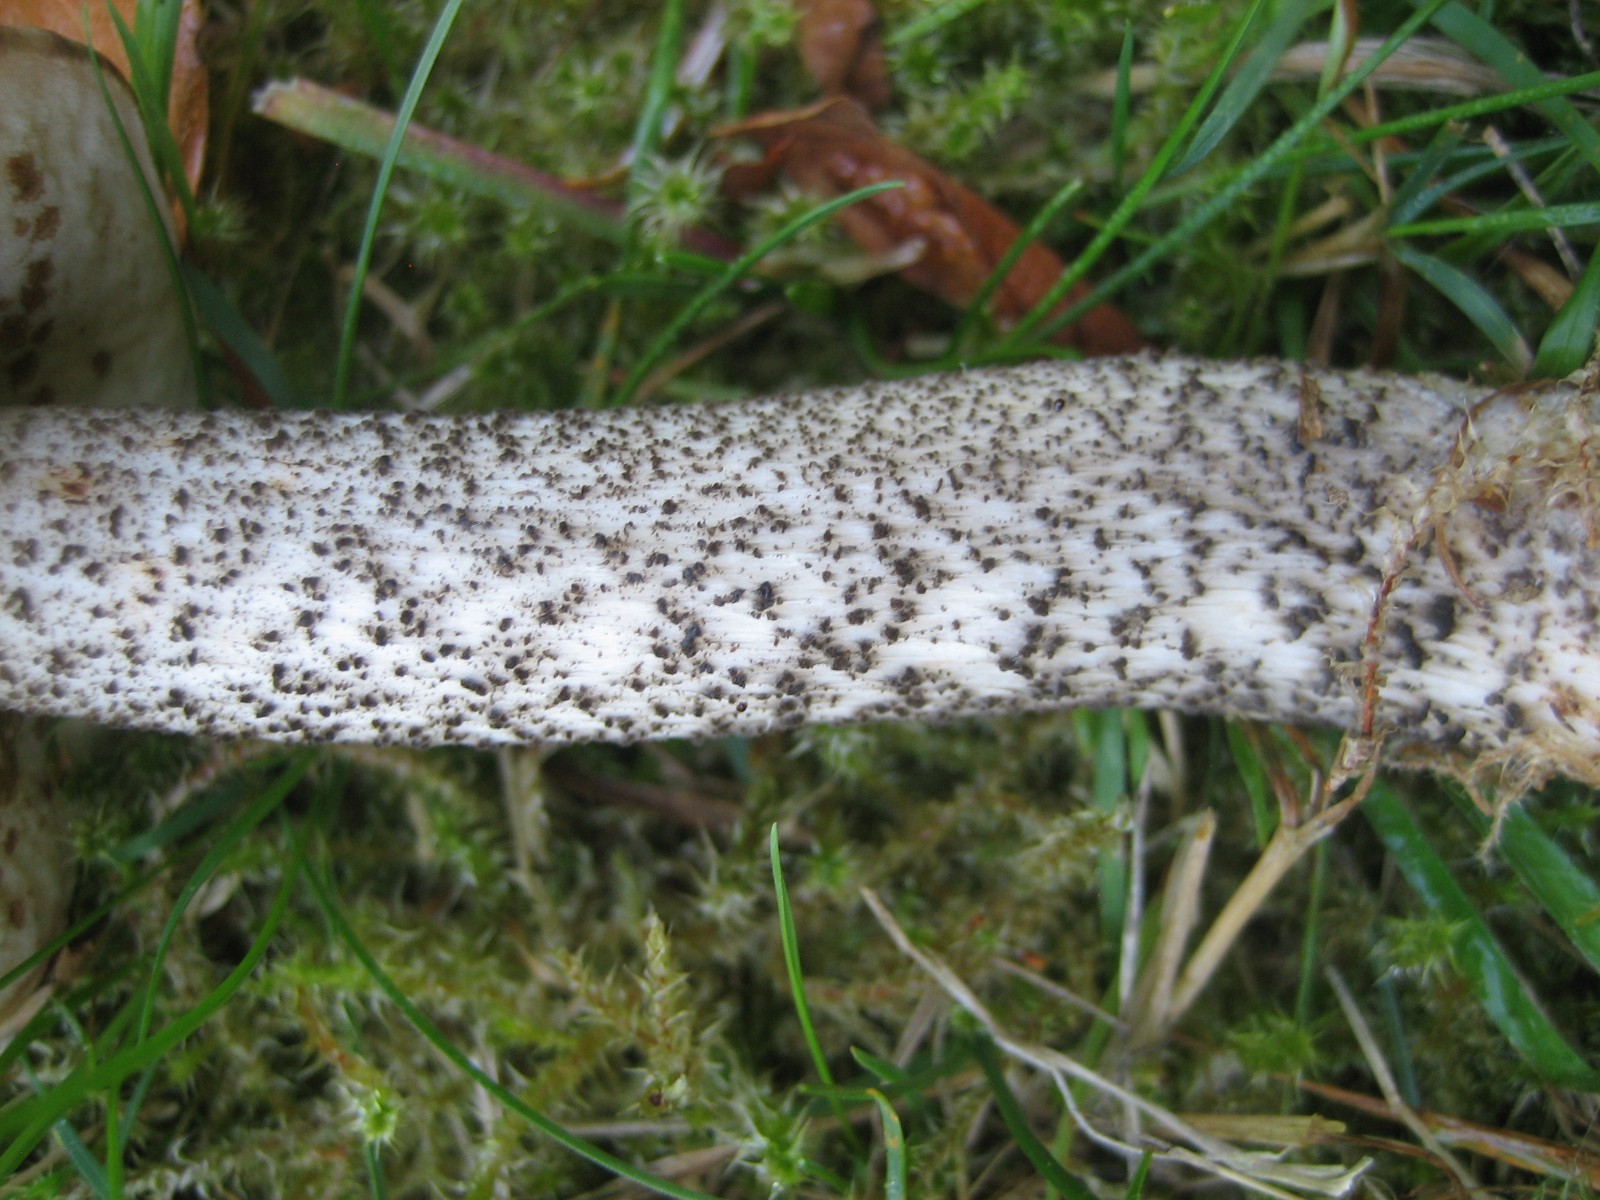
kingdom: Fungi
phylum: Basidiomycota
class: Agaricomycetes
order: Boletales
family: Boletaceae
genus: Leccinum
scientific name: Leccinum scabrum
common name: brun skælrørhat
